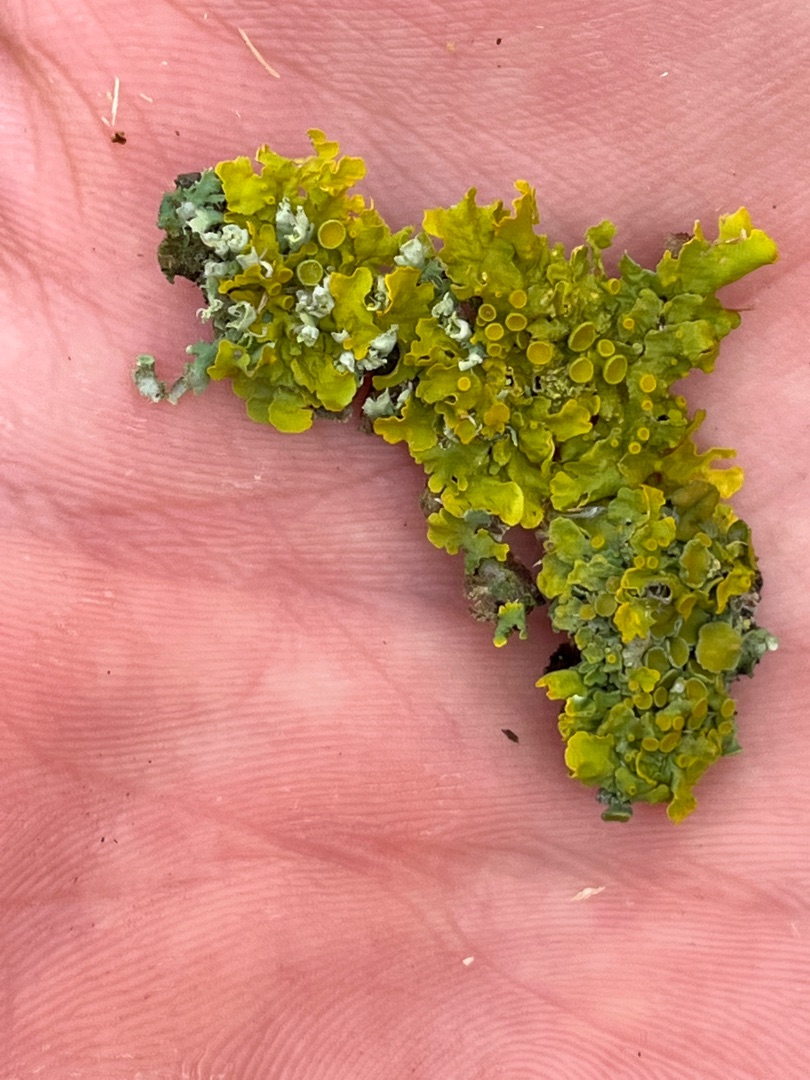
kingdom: Fungi
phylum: Ascomycota
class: Lecanoromycetes
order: Teloschistales
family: Teloschistaceae
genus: Xanthoria
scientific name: Xanthoria parietina
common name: Almindelig væggelav
